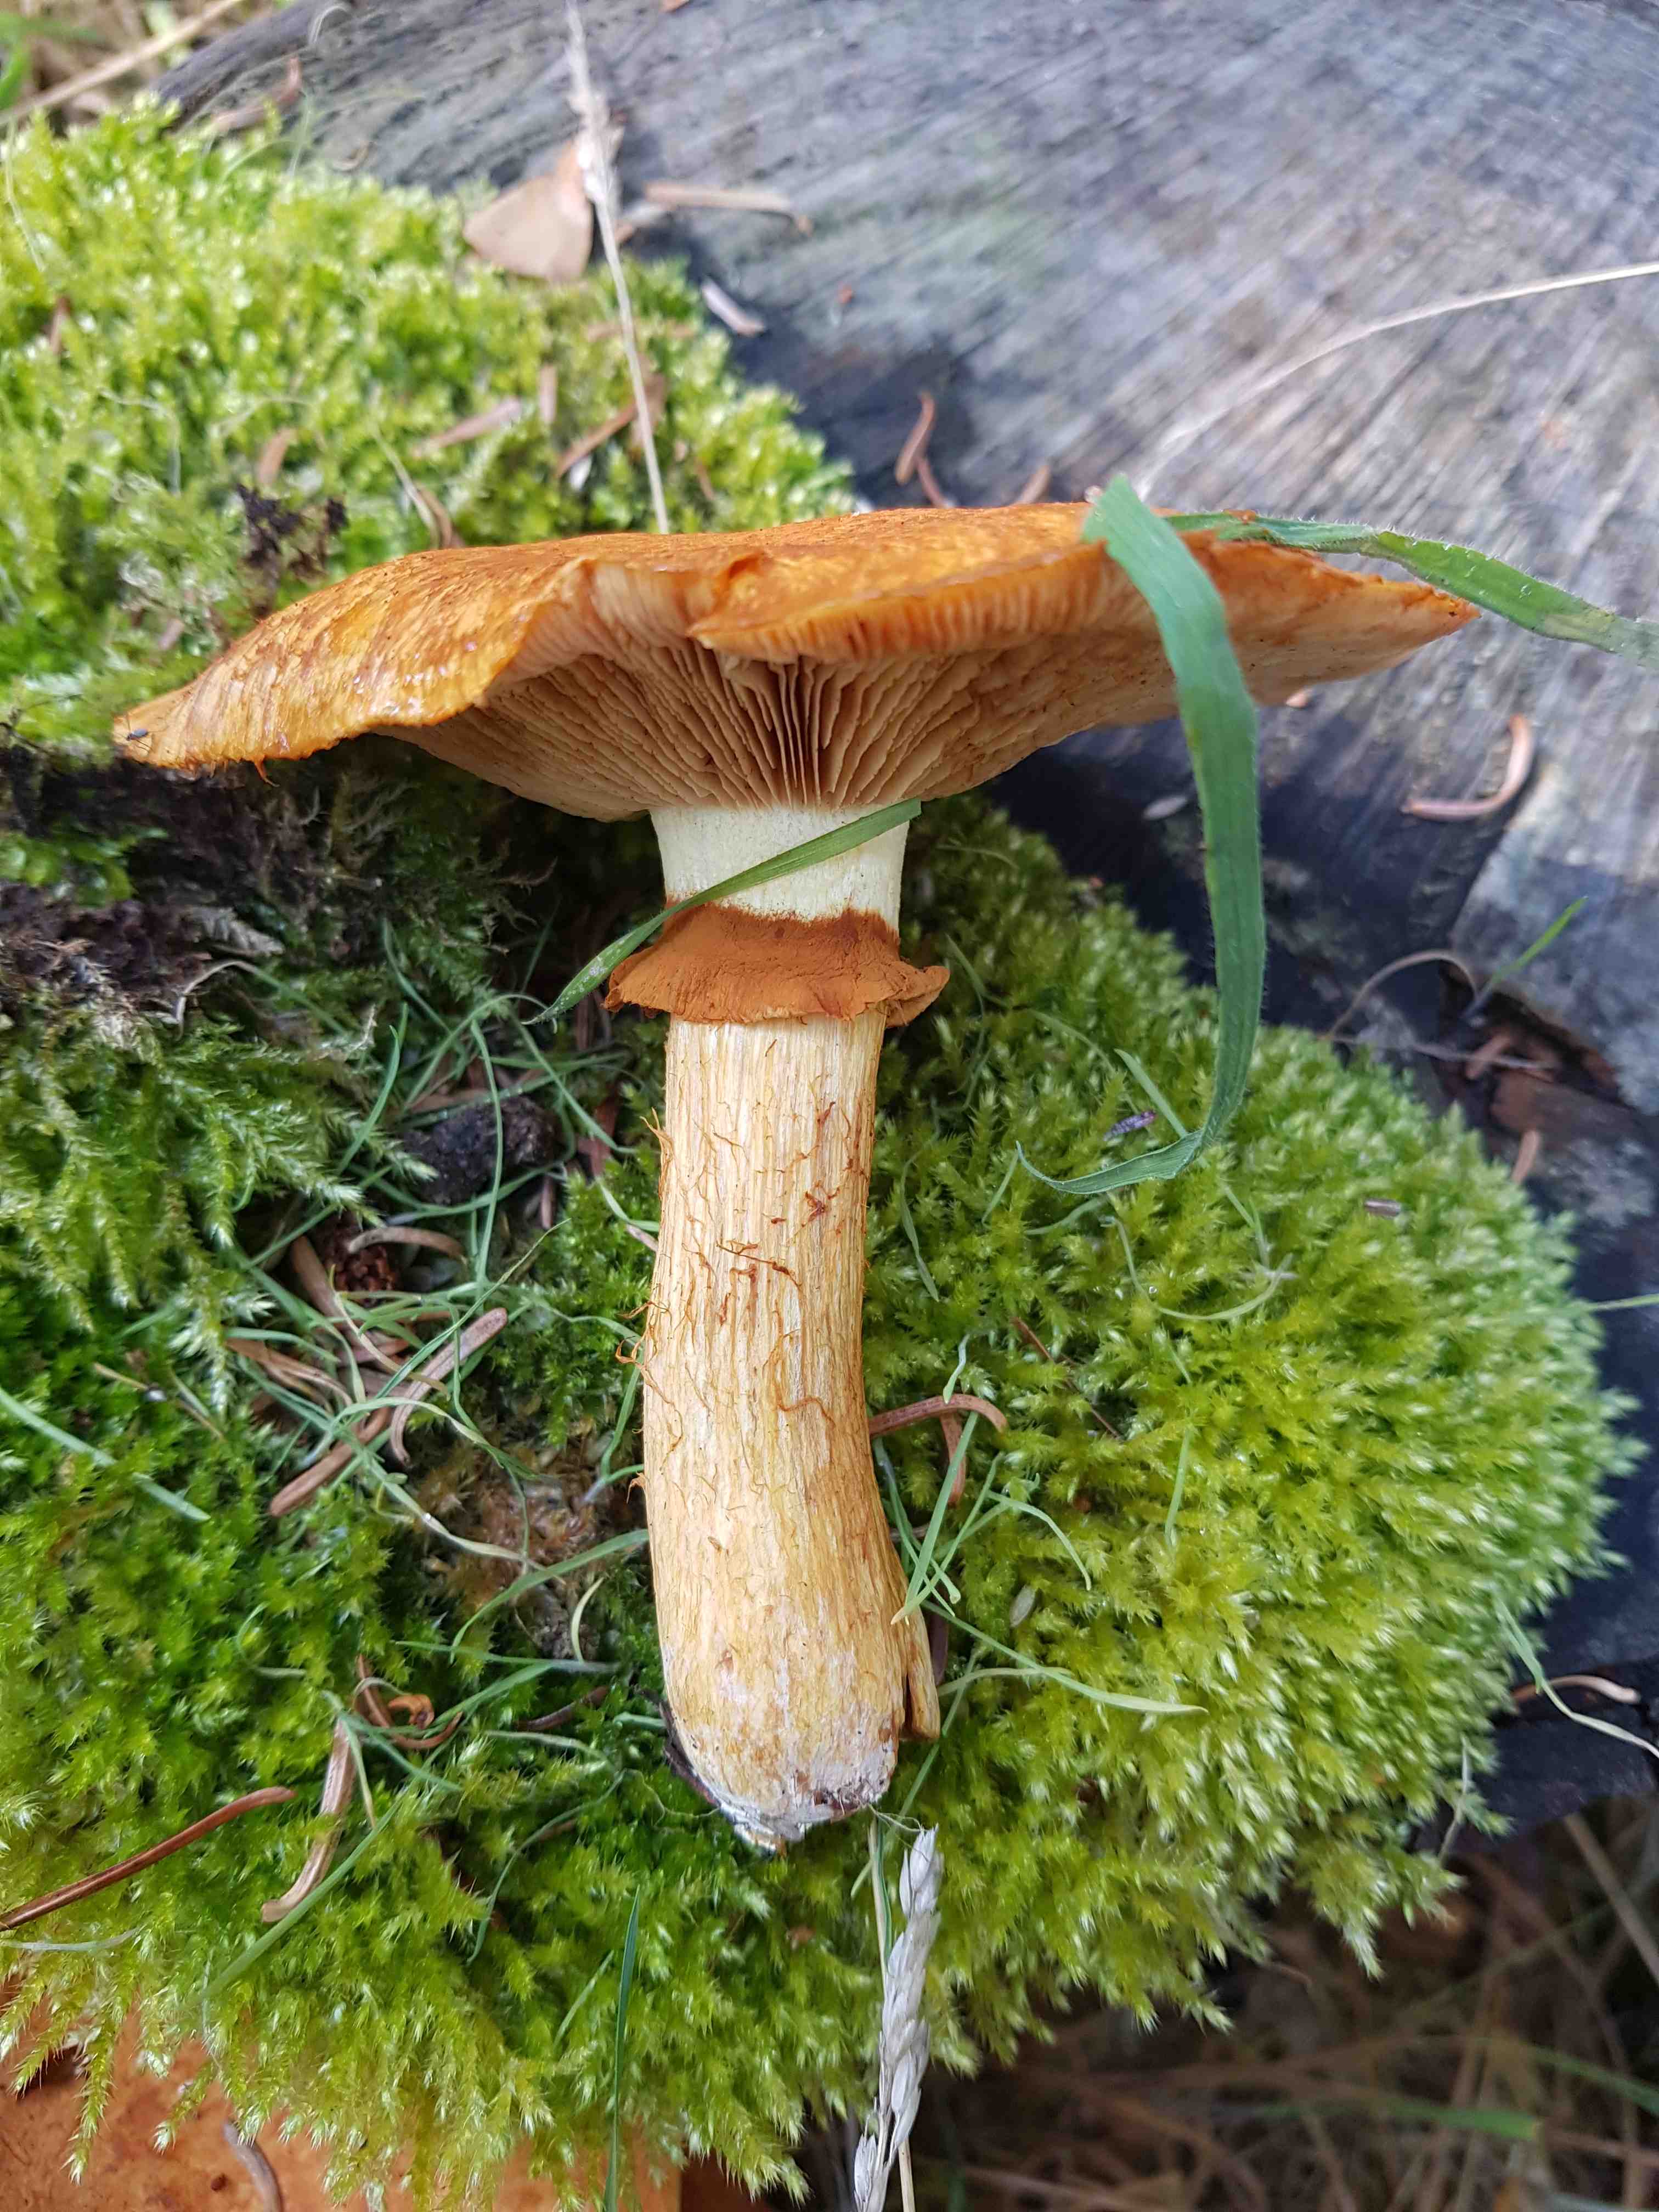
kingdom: Fungi
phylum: Basidiomycota
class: Agaricomycetes
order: Agaricales
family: Hymenogastraceae
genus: Gymnopilus
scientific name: Gymnopilus spectabilis
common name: fibret flammehat
